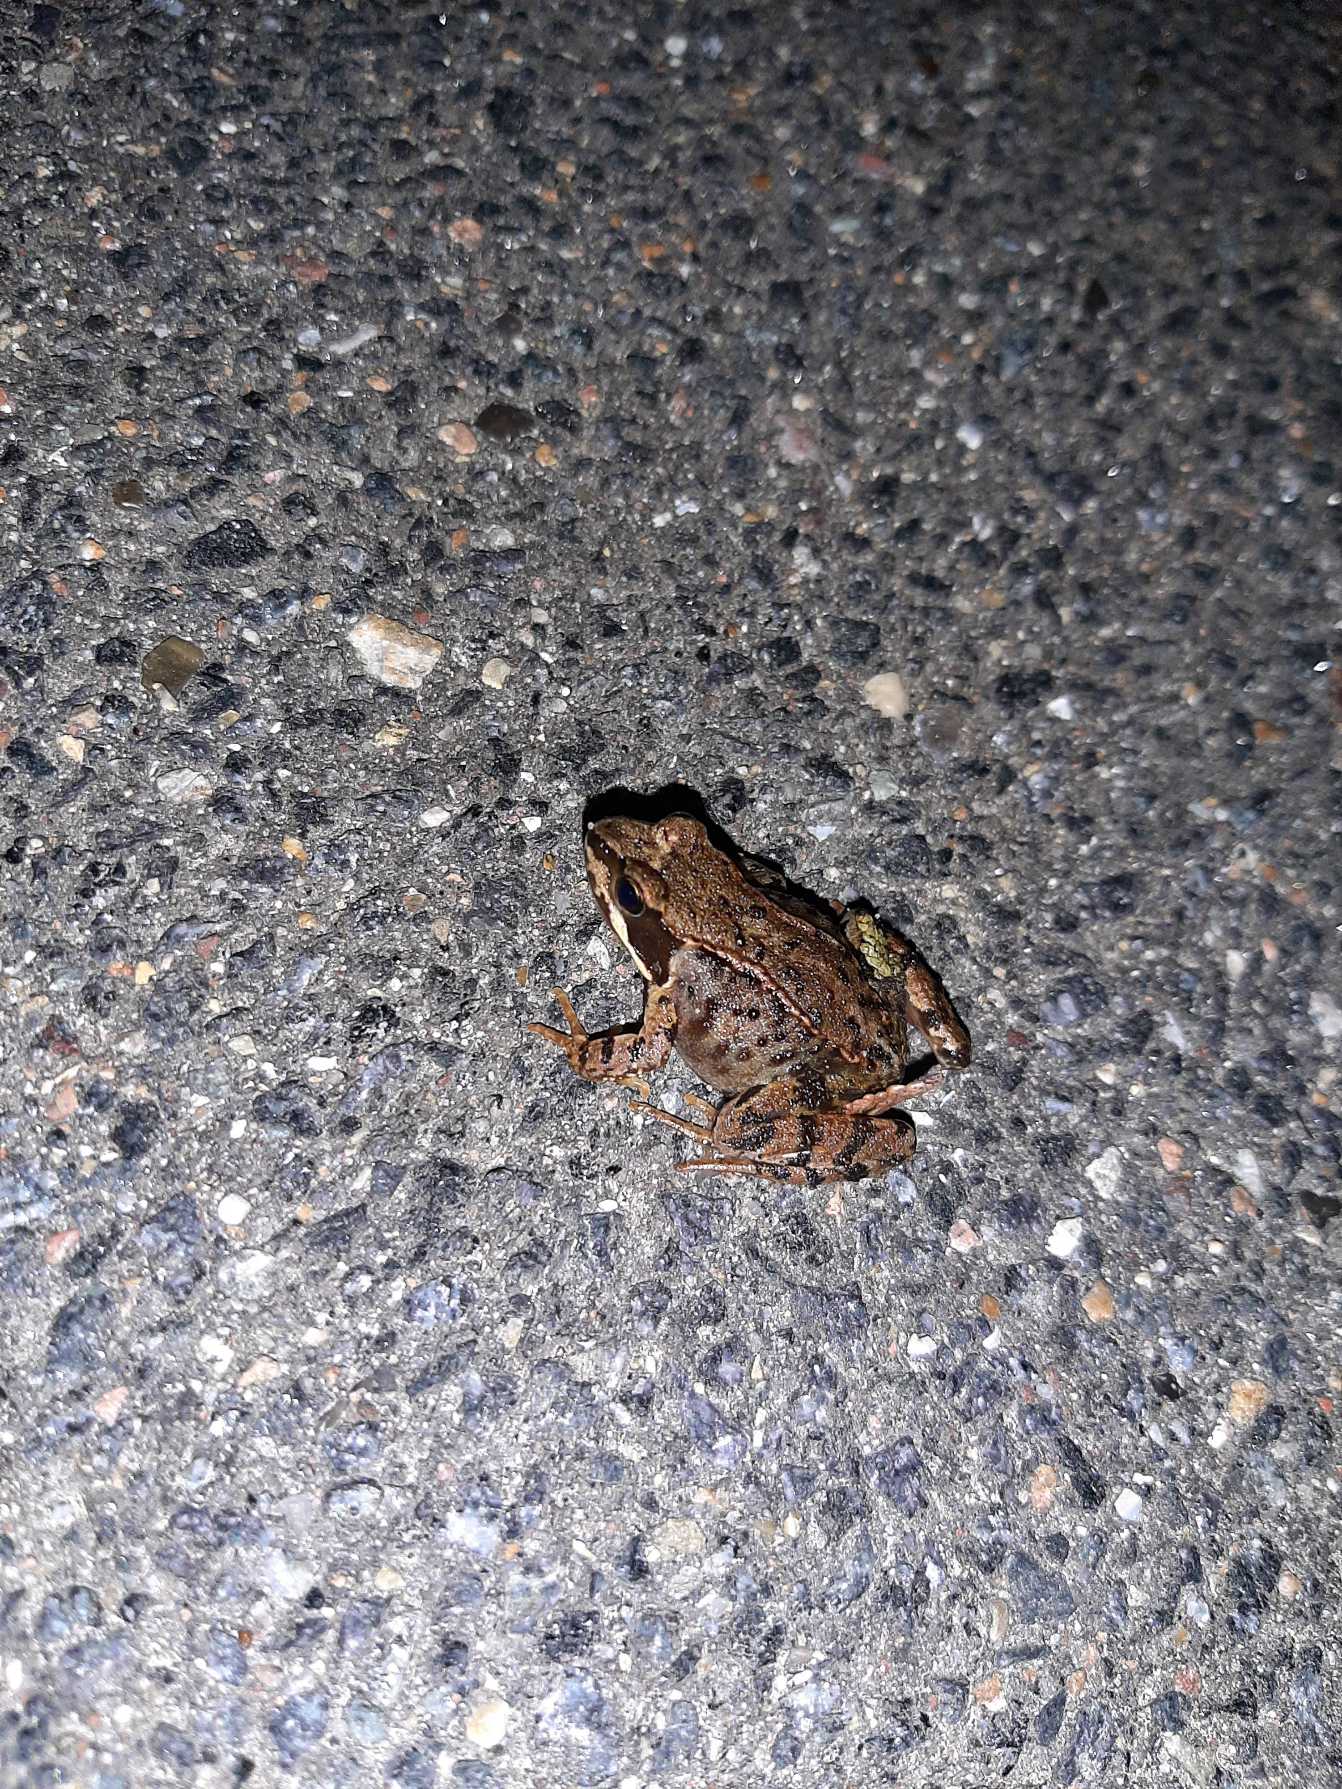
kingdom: Animalia
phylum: Chordata
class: Amphibia
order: Anura
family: Ranidae
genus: Rana
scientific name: Rana temporaria
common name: Butsnudet frø
